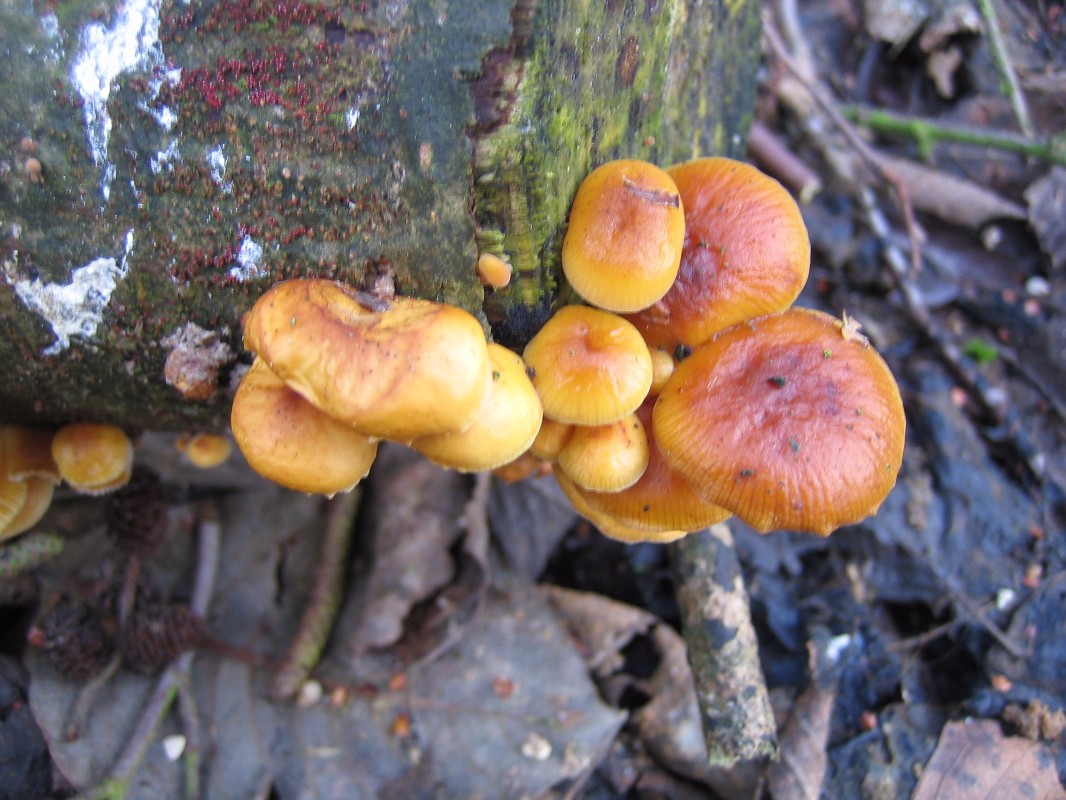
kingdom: Fungi
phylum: Basidiomycota
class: Agaricomycetes
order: Agaricales
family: Physalacriaceae
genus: Flammulina
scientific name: Flammulina velutipes
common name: gul fløjlsfod
